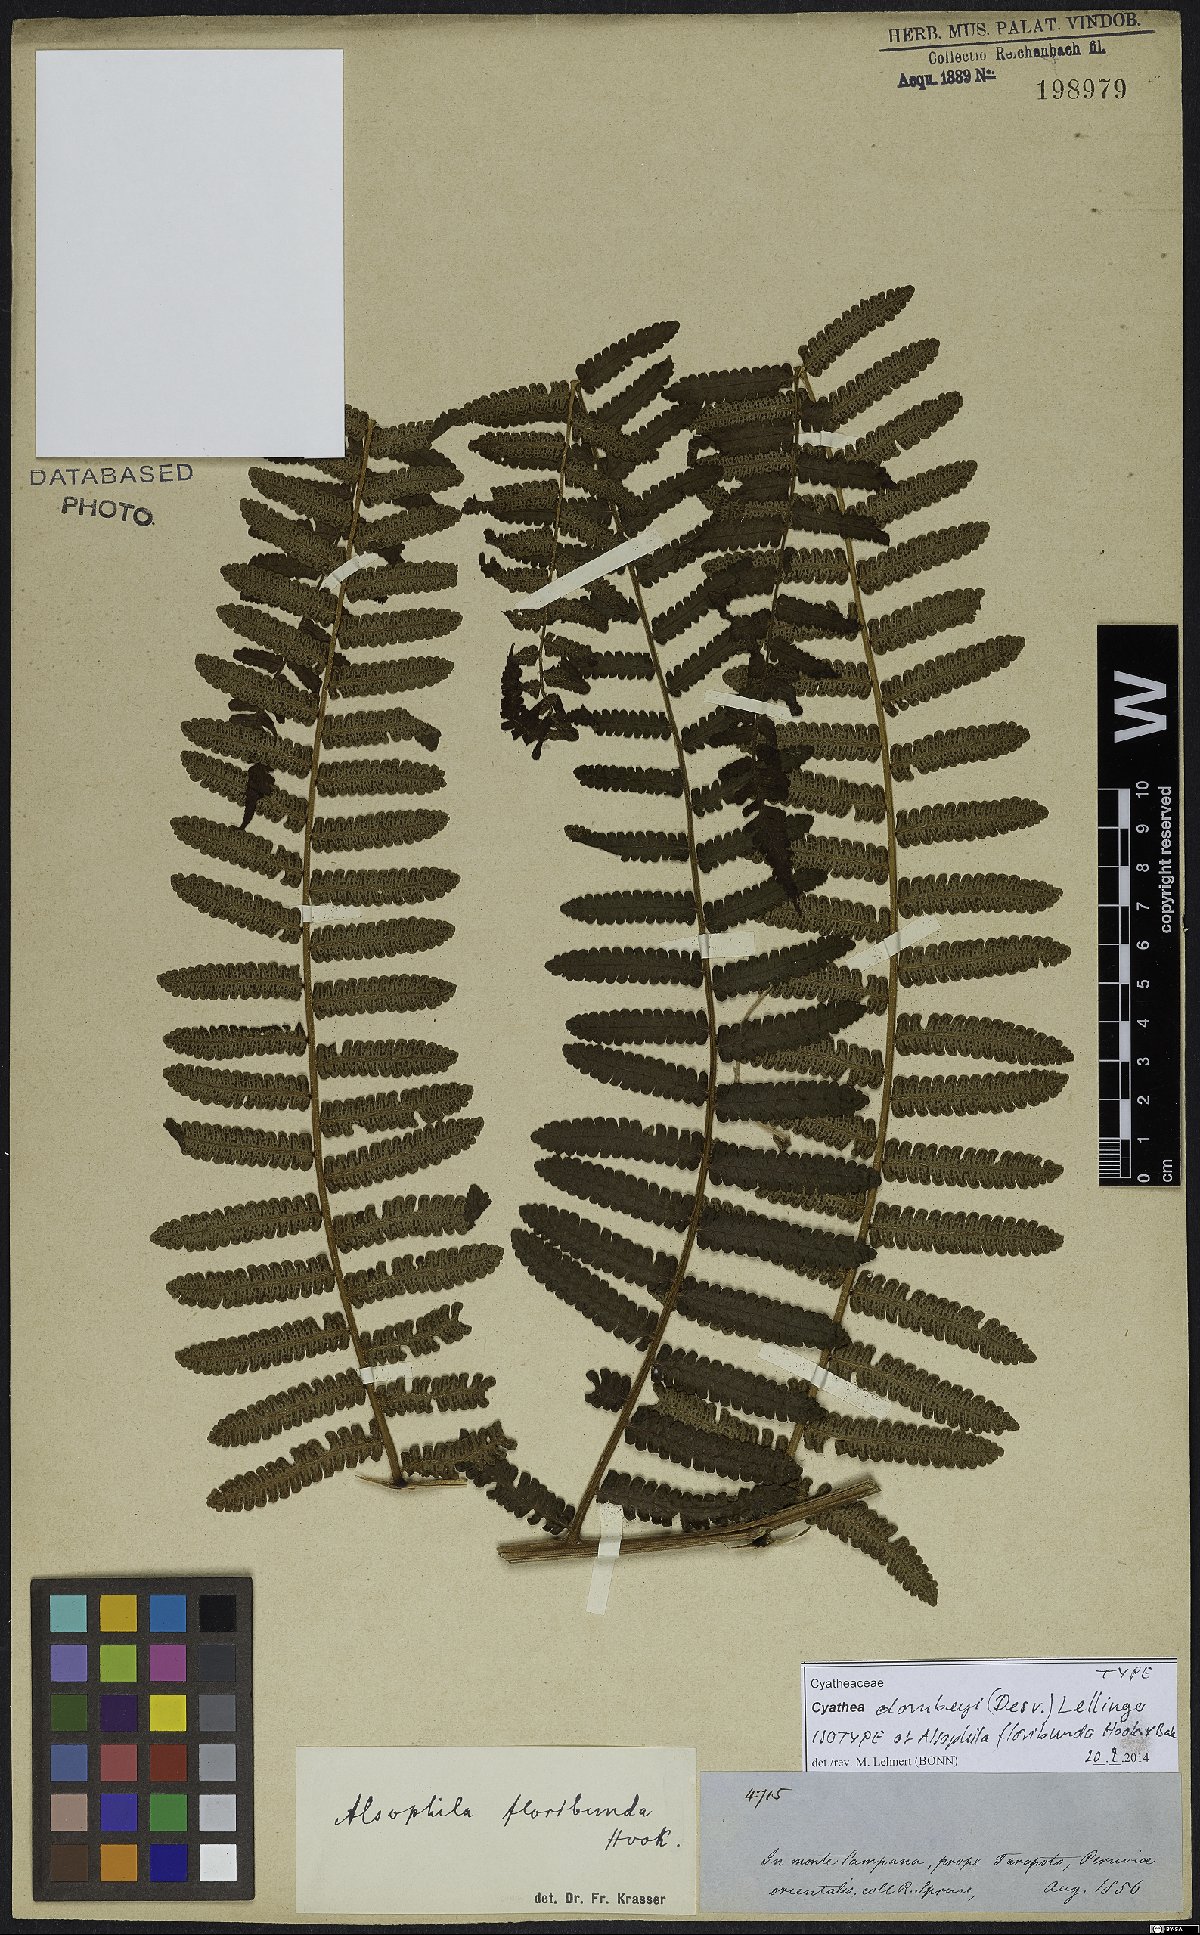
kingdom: Plantae
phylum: Tracheophyta
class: Polypodiopsida
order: Cyatheales
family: Cyatheaceae
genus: Cyathea
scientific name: Cyathea dombeyi
